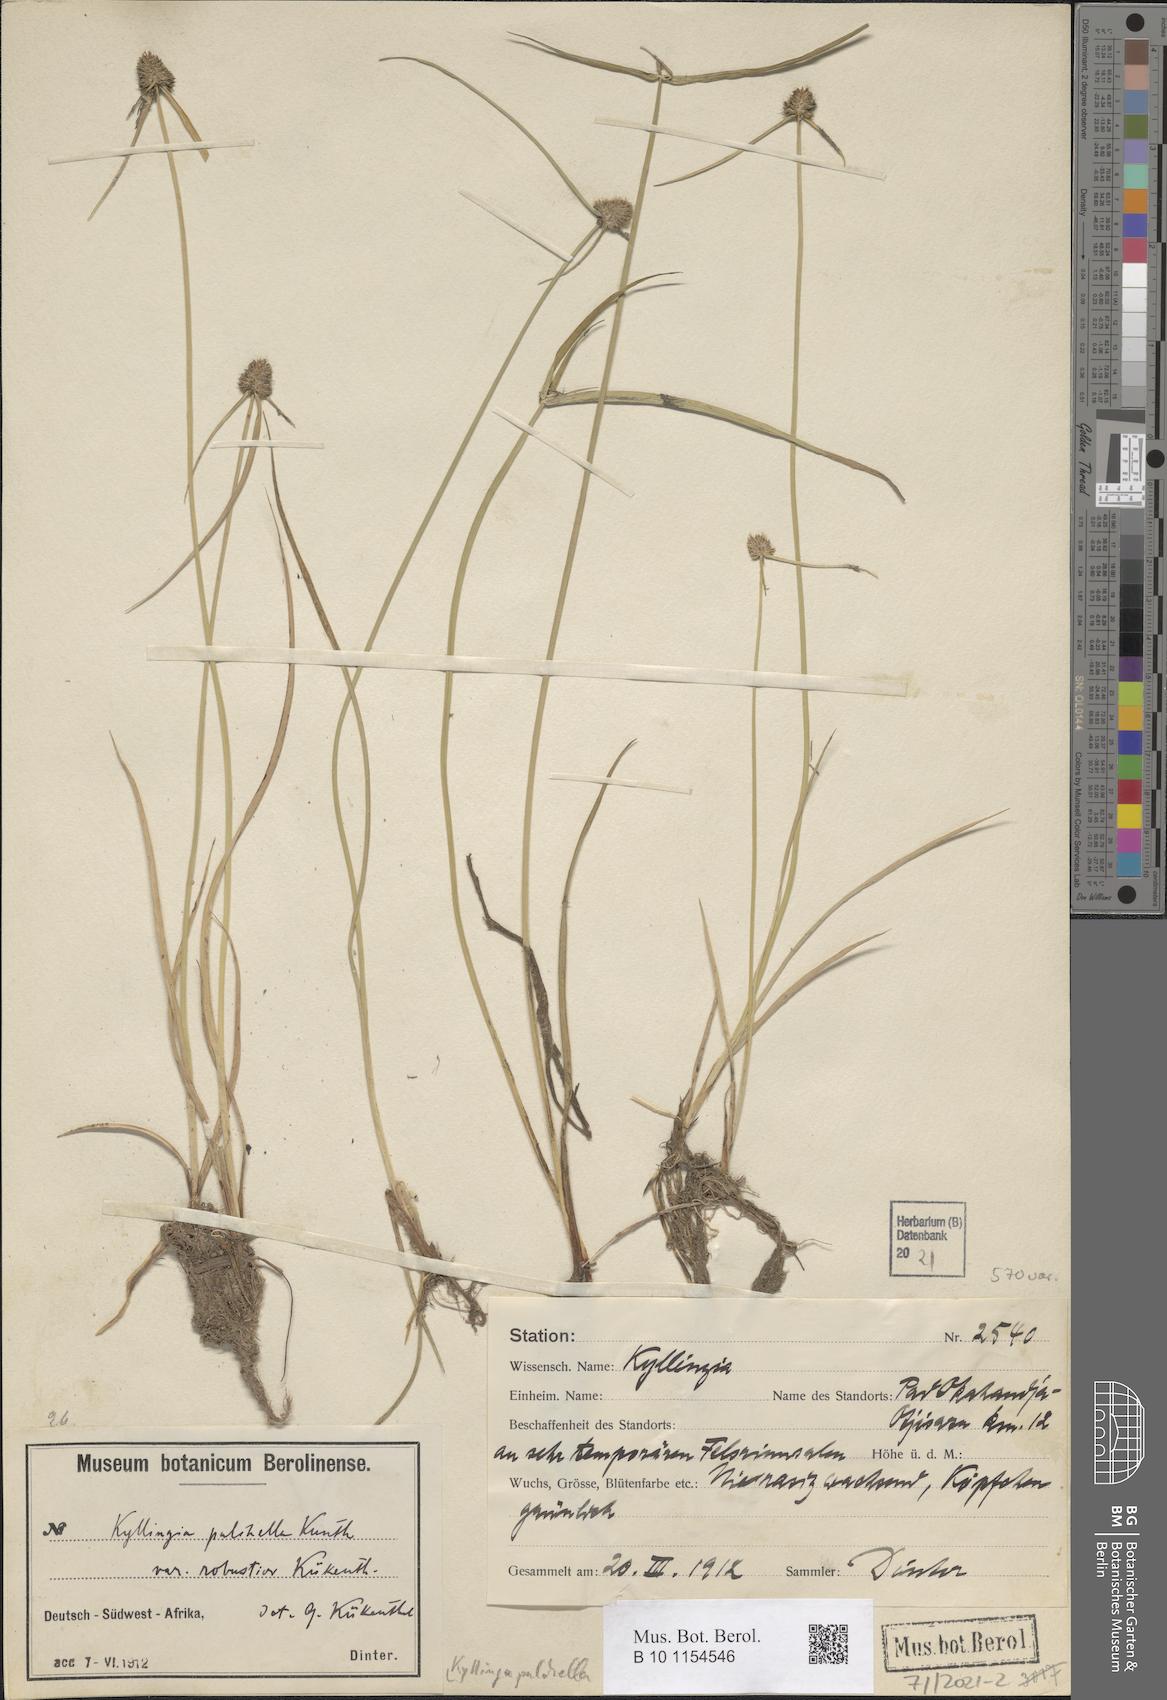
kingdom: Plantae
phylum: Tracheophyta
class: Liliopsida
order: Poales
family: Cyperaceae
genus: Cyperus
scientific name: Cyperus bracheilema
